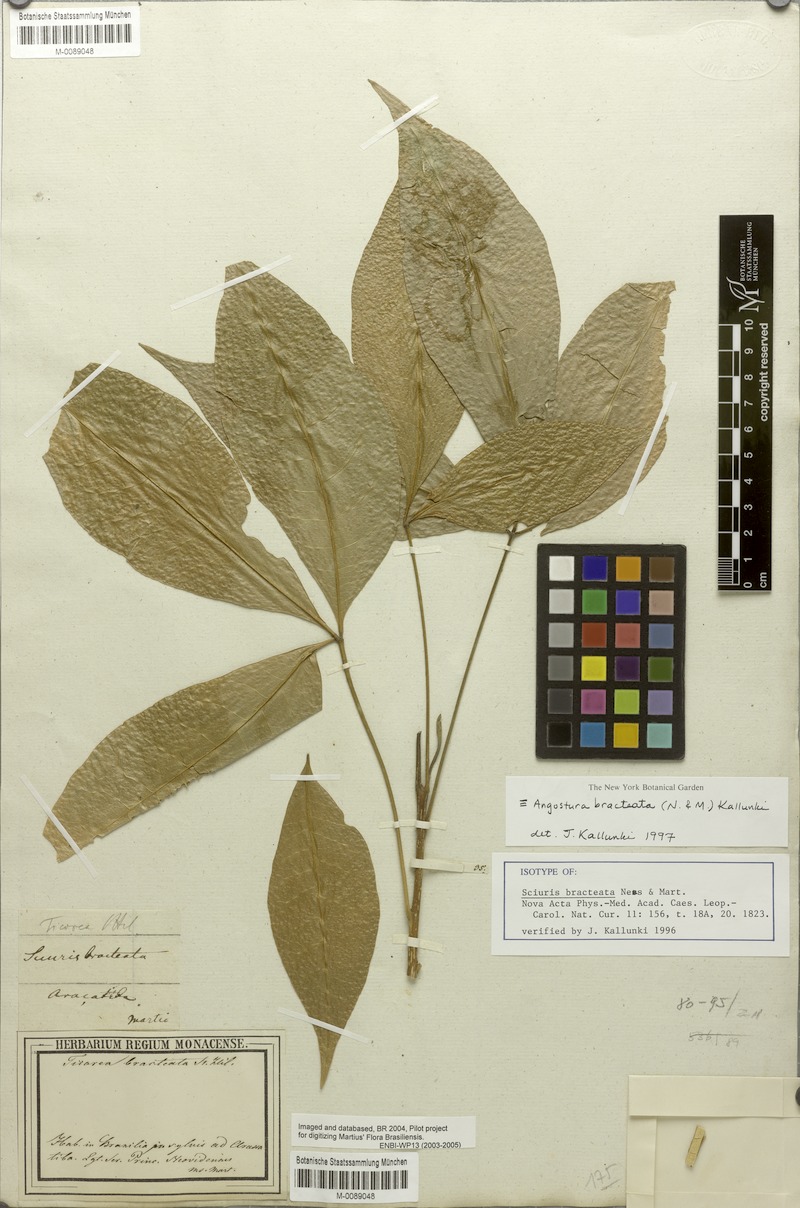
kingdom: Plantae
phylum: Tracheophyta
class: Magnoliopsida
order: Sapindales
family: Rutaceae
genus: Angostura
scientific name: Angostura bracteata
